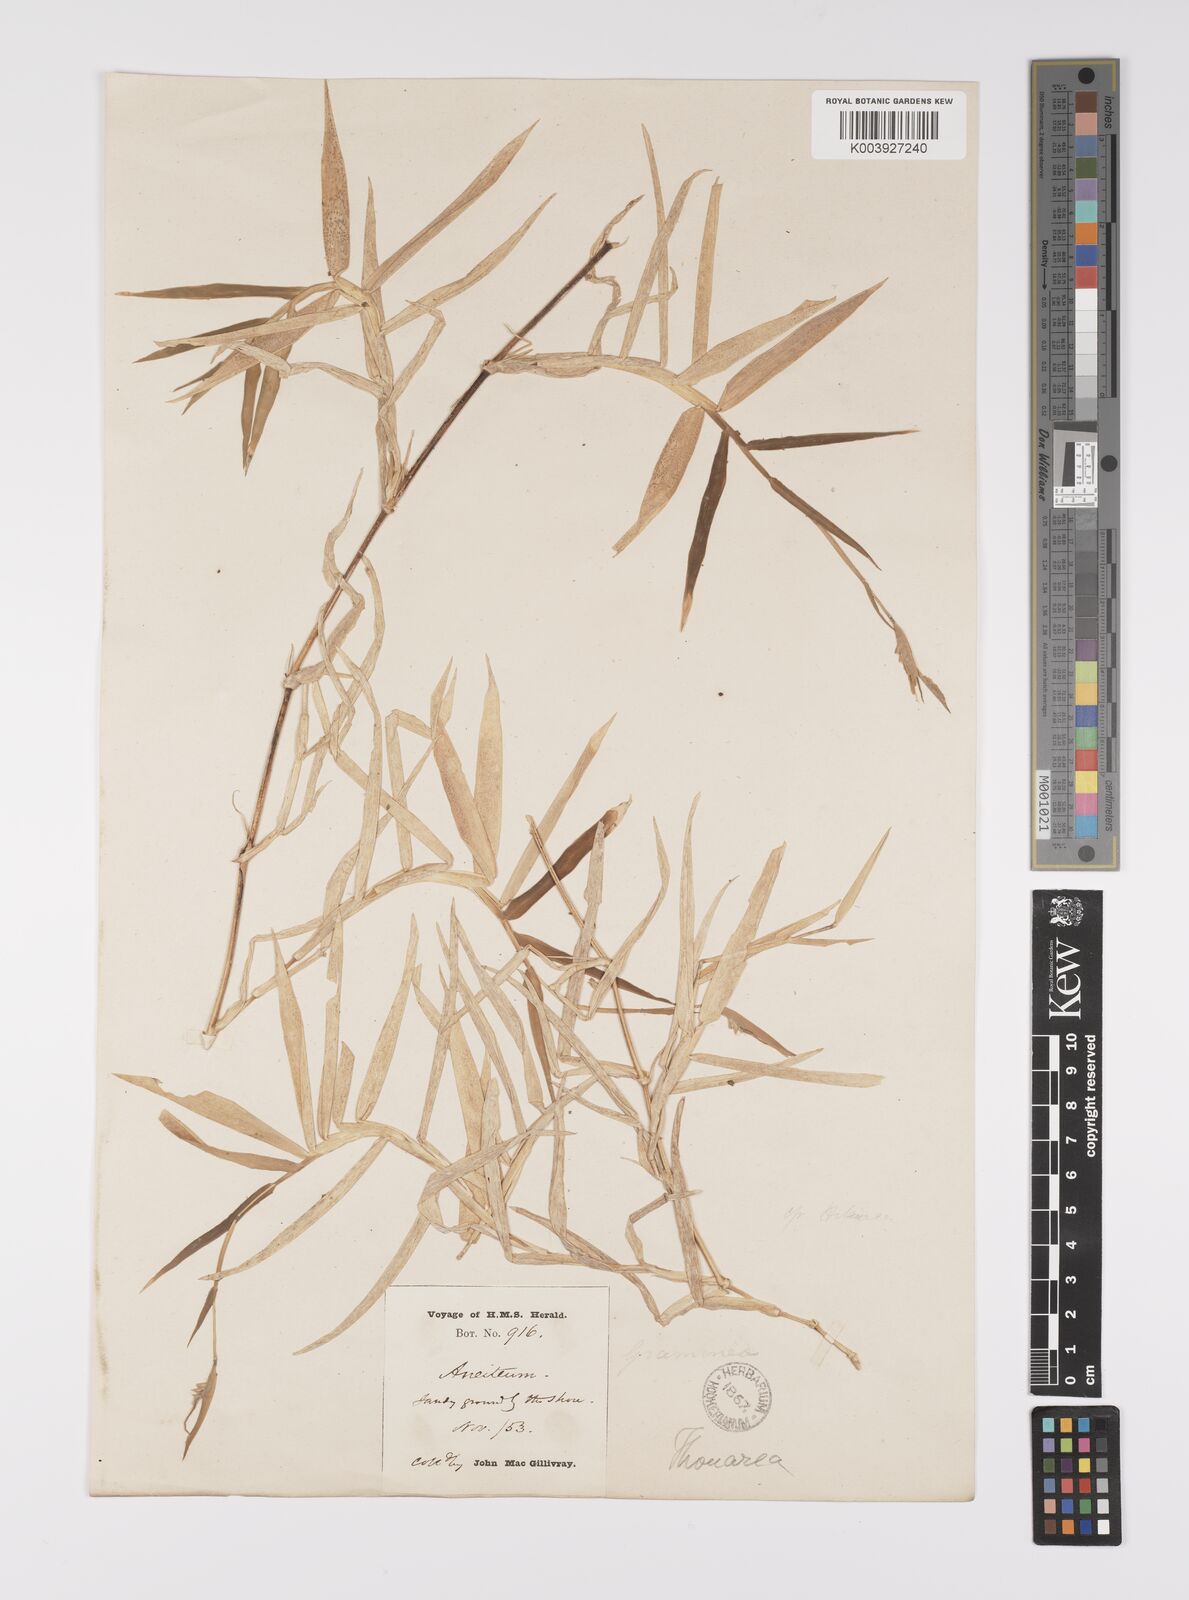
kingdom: Plantae
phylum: Tracheophyta
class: Liliopsida
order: Poales
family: Poaceae
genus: Thuarea
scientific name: Thuarea involuta
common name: Tropical beach grass
